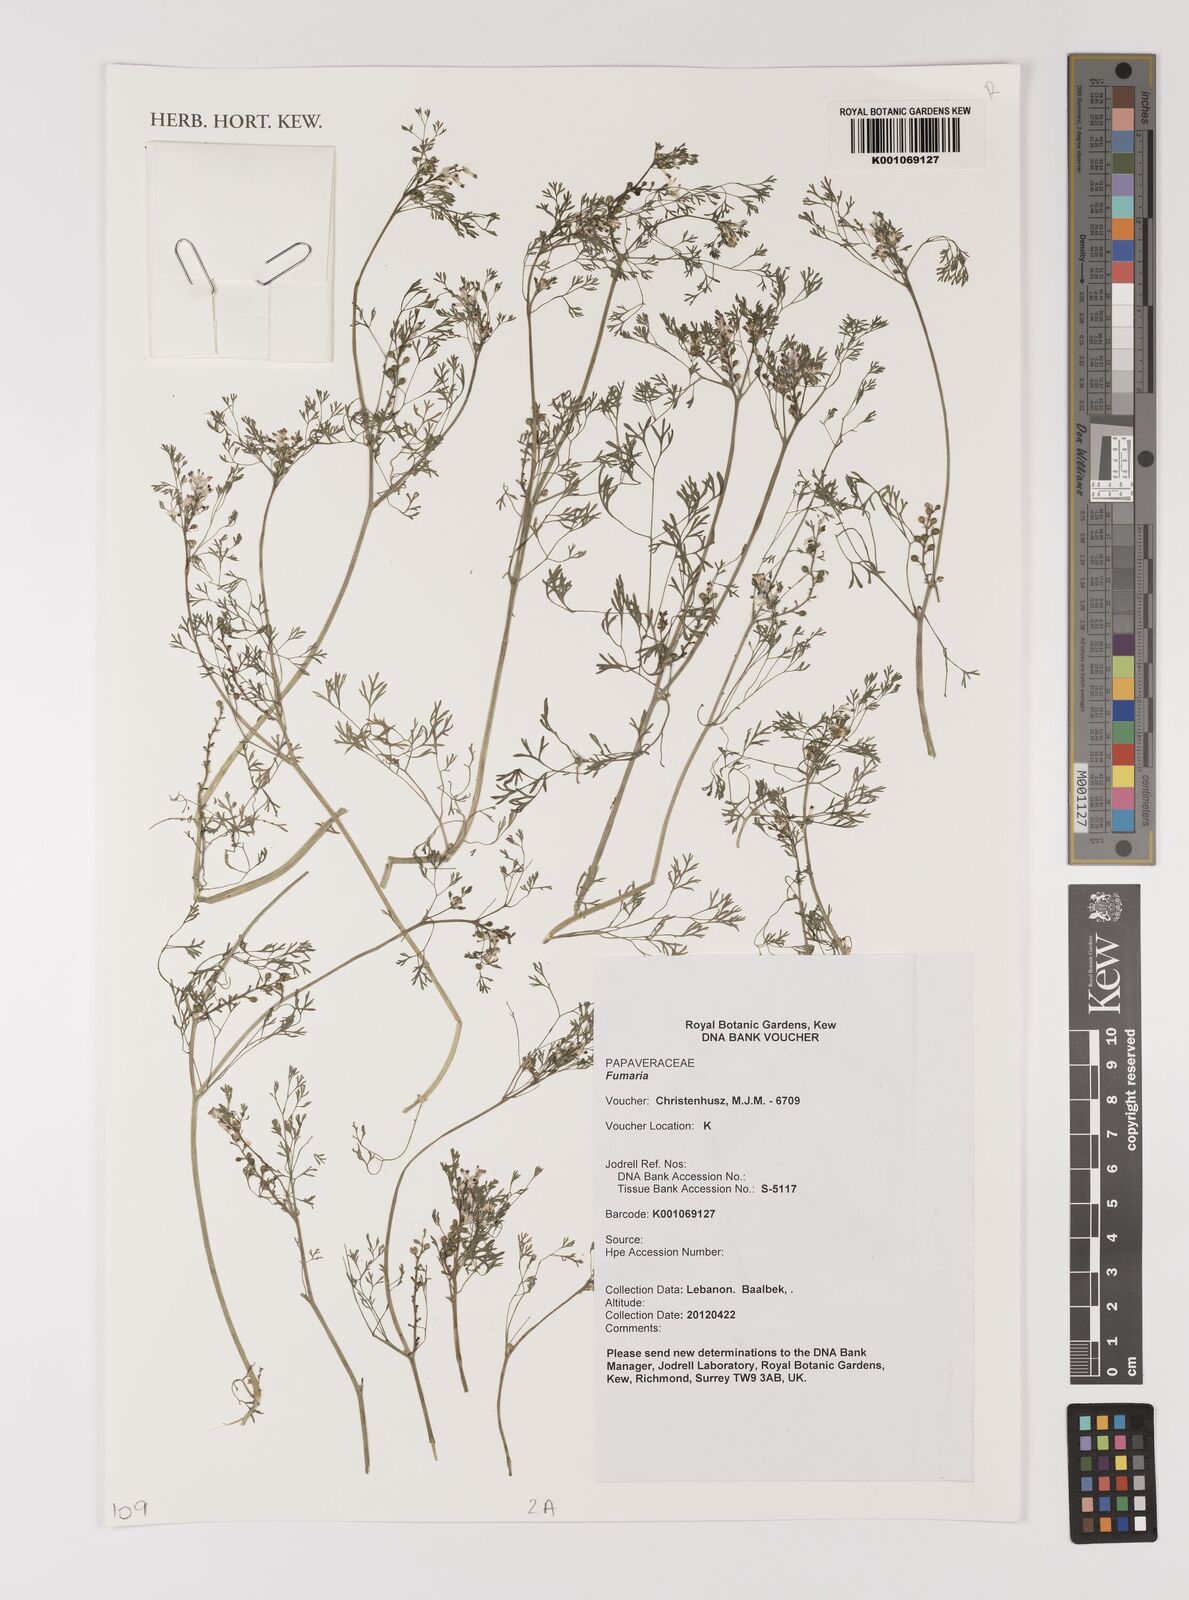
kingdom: Plantae
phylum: Tracheophyta
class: Magnoliopsida
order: Ranunculales
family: Papaveraceae
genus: Fumaria
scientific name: Fumaria
